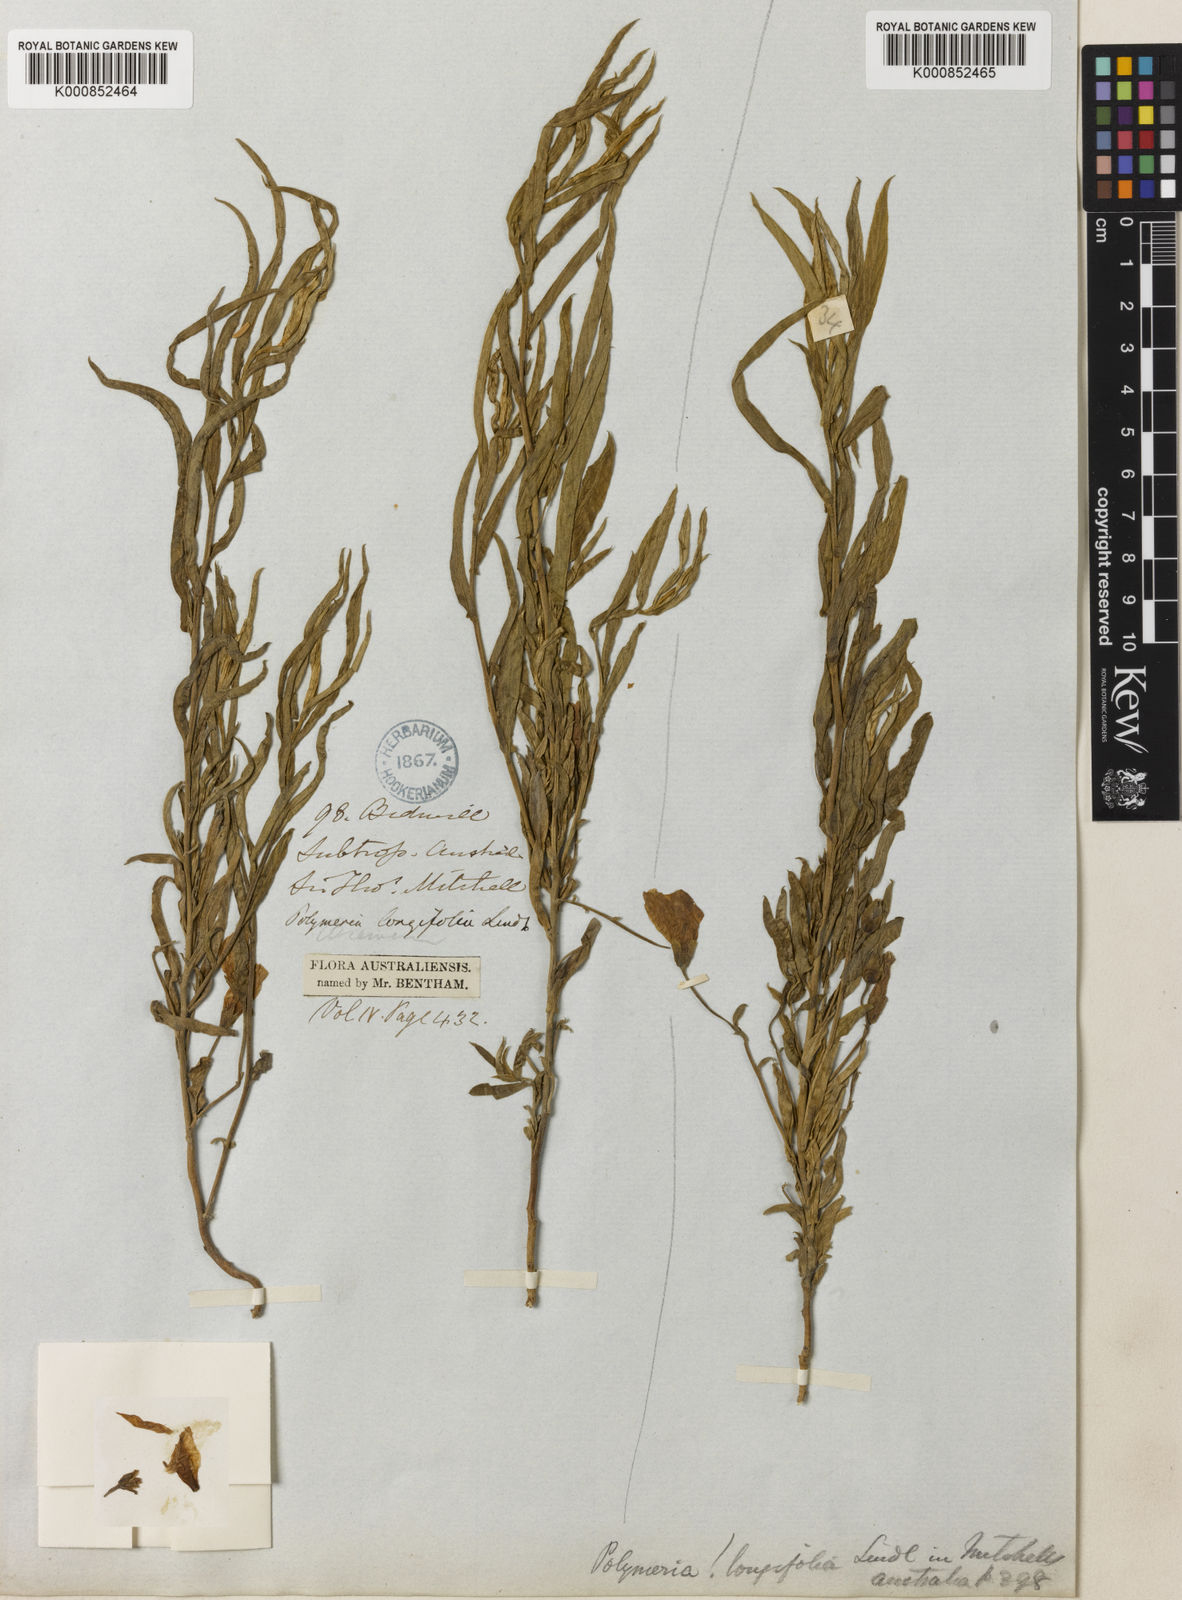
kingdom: Plantae
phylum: Tracheophyta
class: Magnoliopsida
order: Solanales
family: Convolvulaceae
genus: Polymeria
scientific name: Polymeria longifolia
